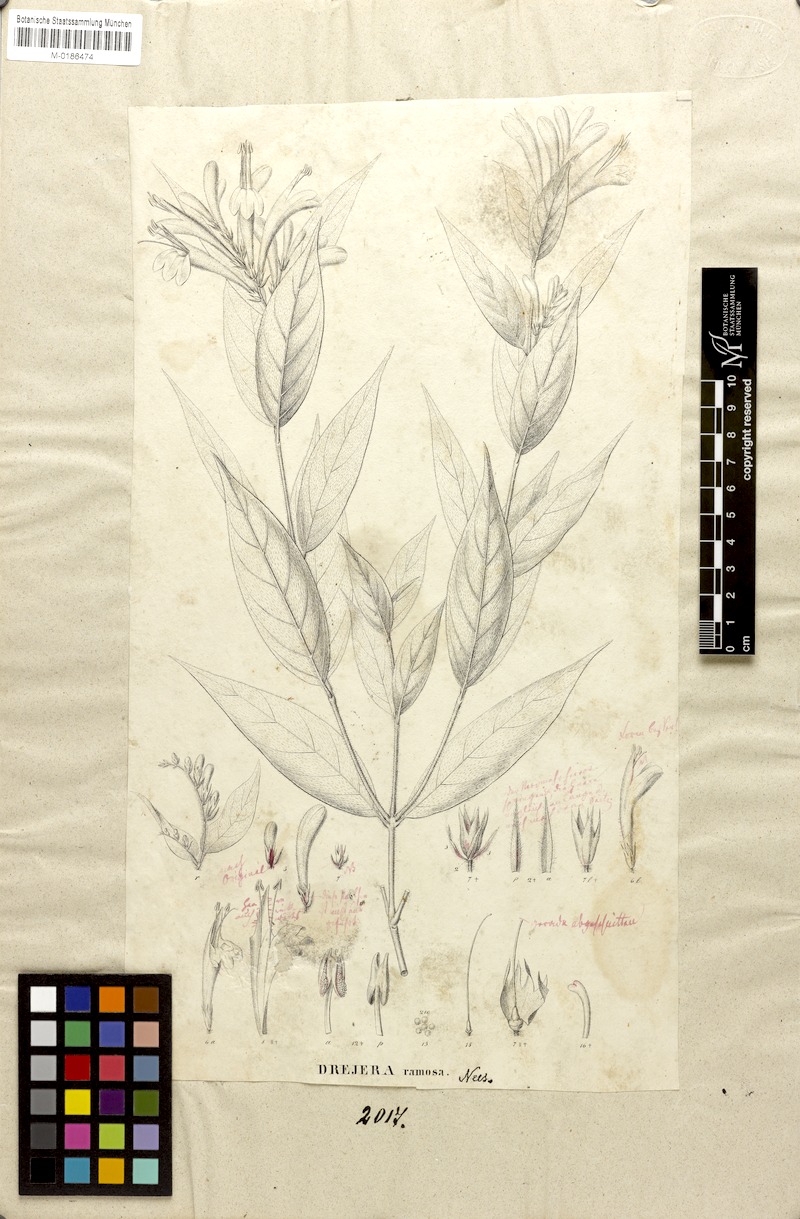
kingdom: Plantae
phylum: Tracheophyta
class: Magnoliopsida
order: Lamiales
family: Acanthaceae
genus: Thyrsacanthus
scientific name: Thyrsacanthus ramosus
